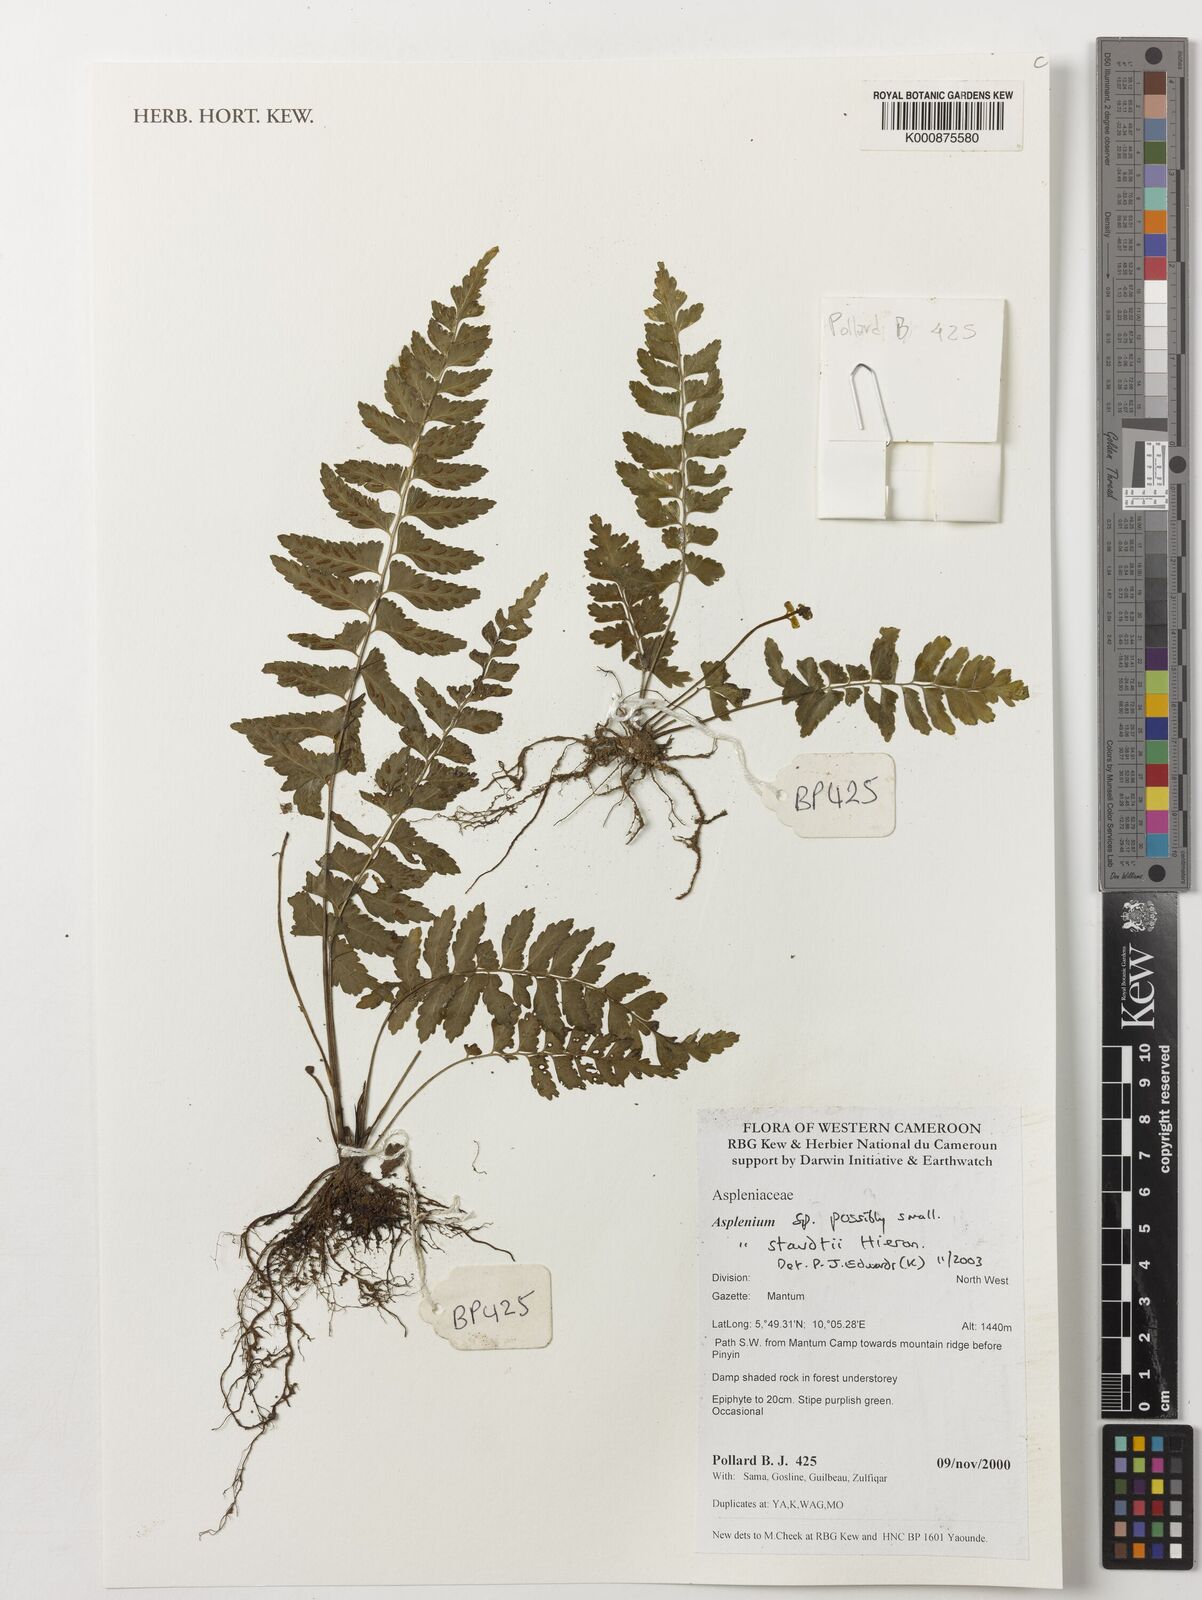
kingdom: Plantae
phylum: Tracheophyta
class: Polypodiopsida
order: Polypodiales
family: Aspleniaceae
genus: Asplenium
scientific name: Asplenium staudtii
